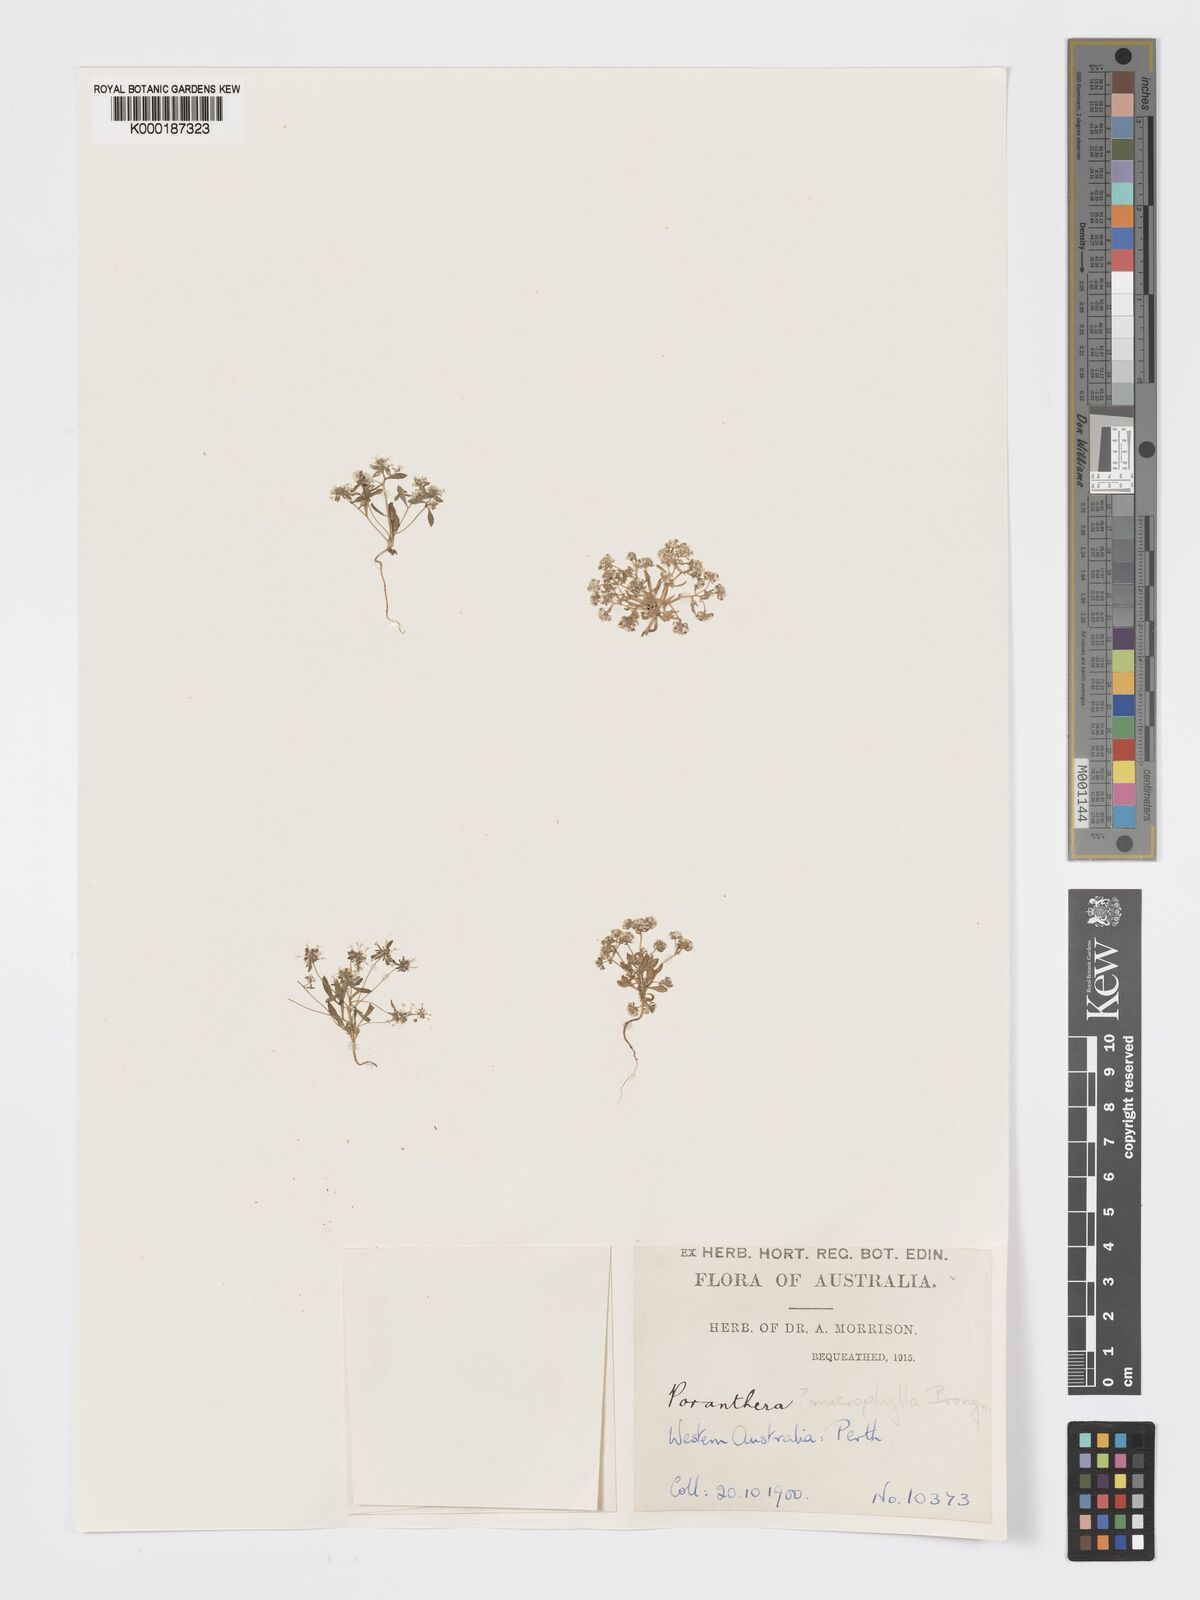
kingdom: Plantae
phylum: Tracheophyta
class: Magnoliopsida
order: Malpighiales
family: Phyllanthaceae
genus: Poranthera
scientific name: Poranthera microphylla
